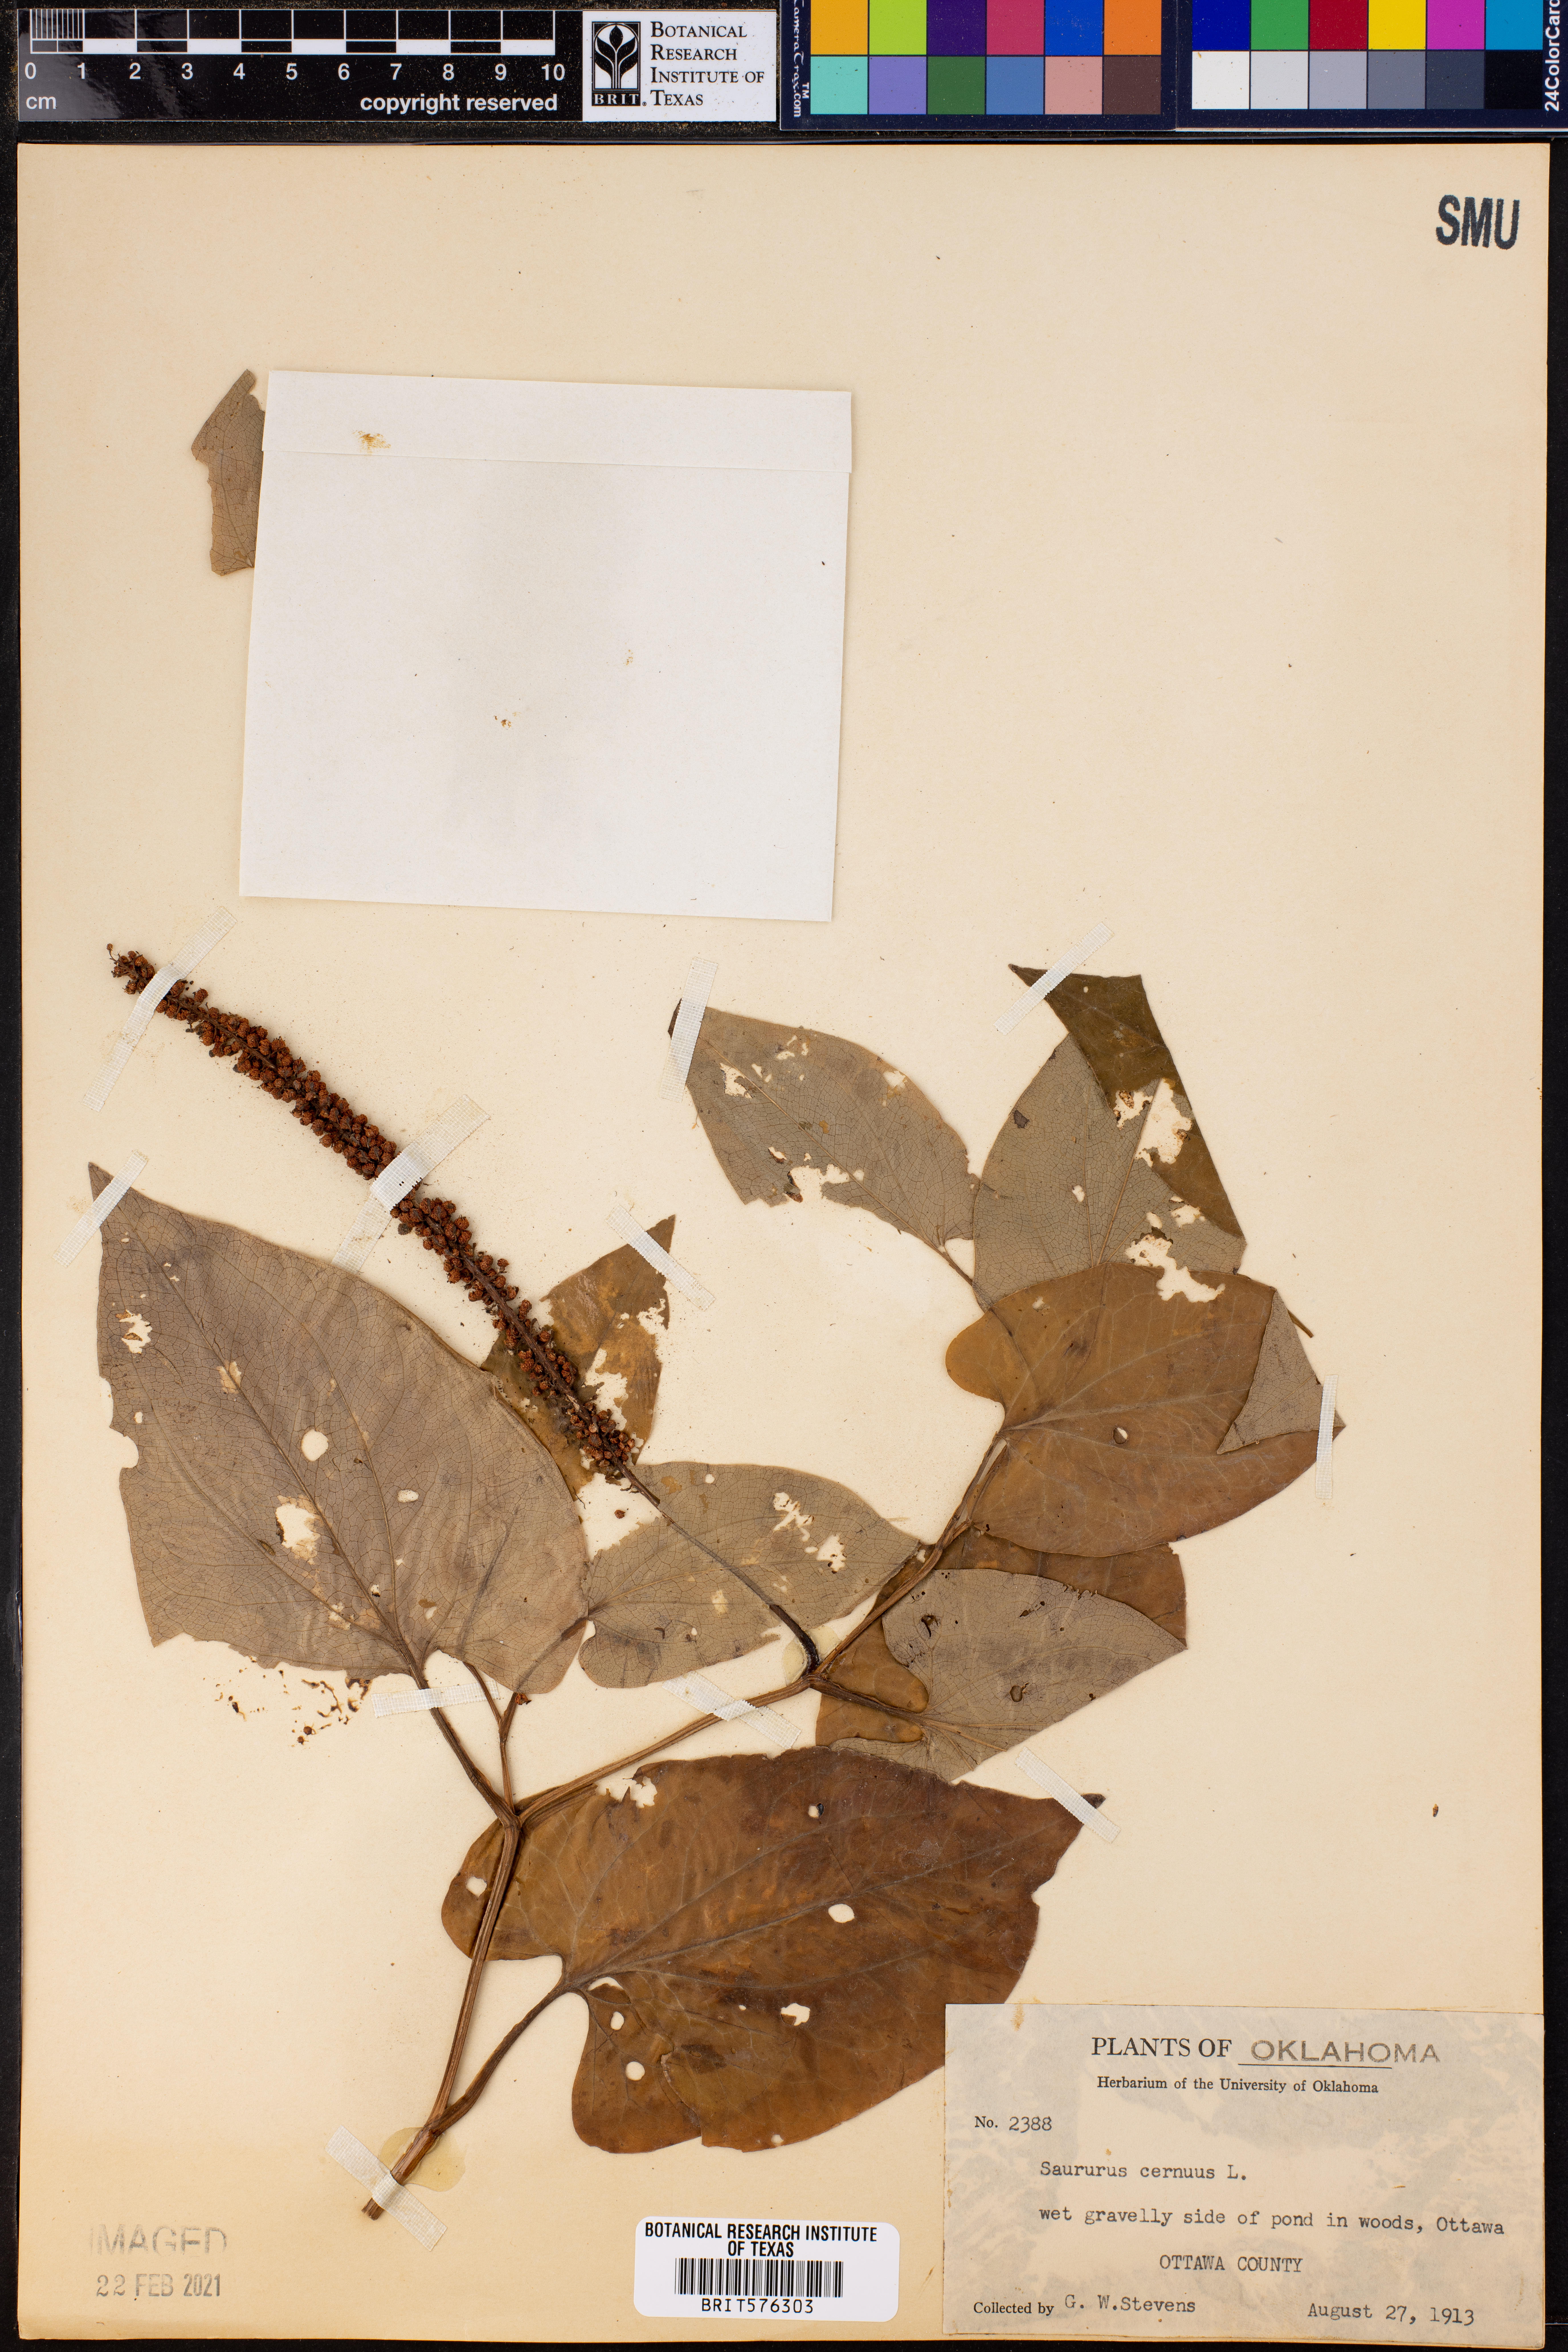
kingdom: Plantae
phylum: Tracheophyta
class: Magnoliopsida
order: Piperales
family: Saururaceae
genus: Saururus
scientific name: Saururus cernuus
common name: Lizard's-tail
